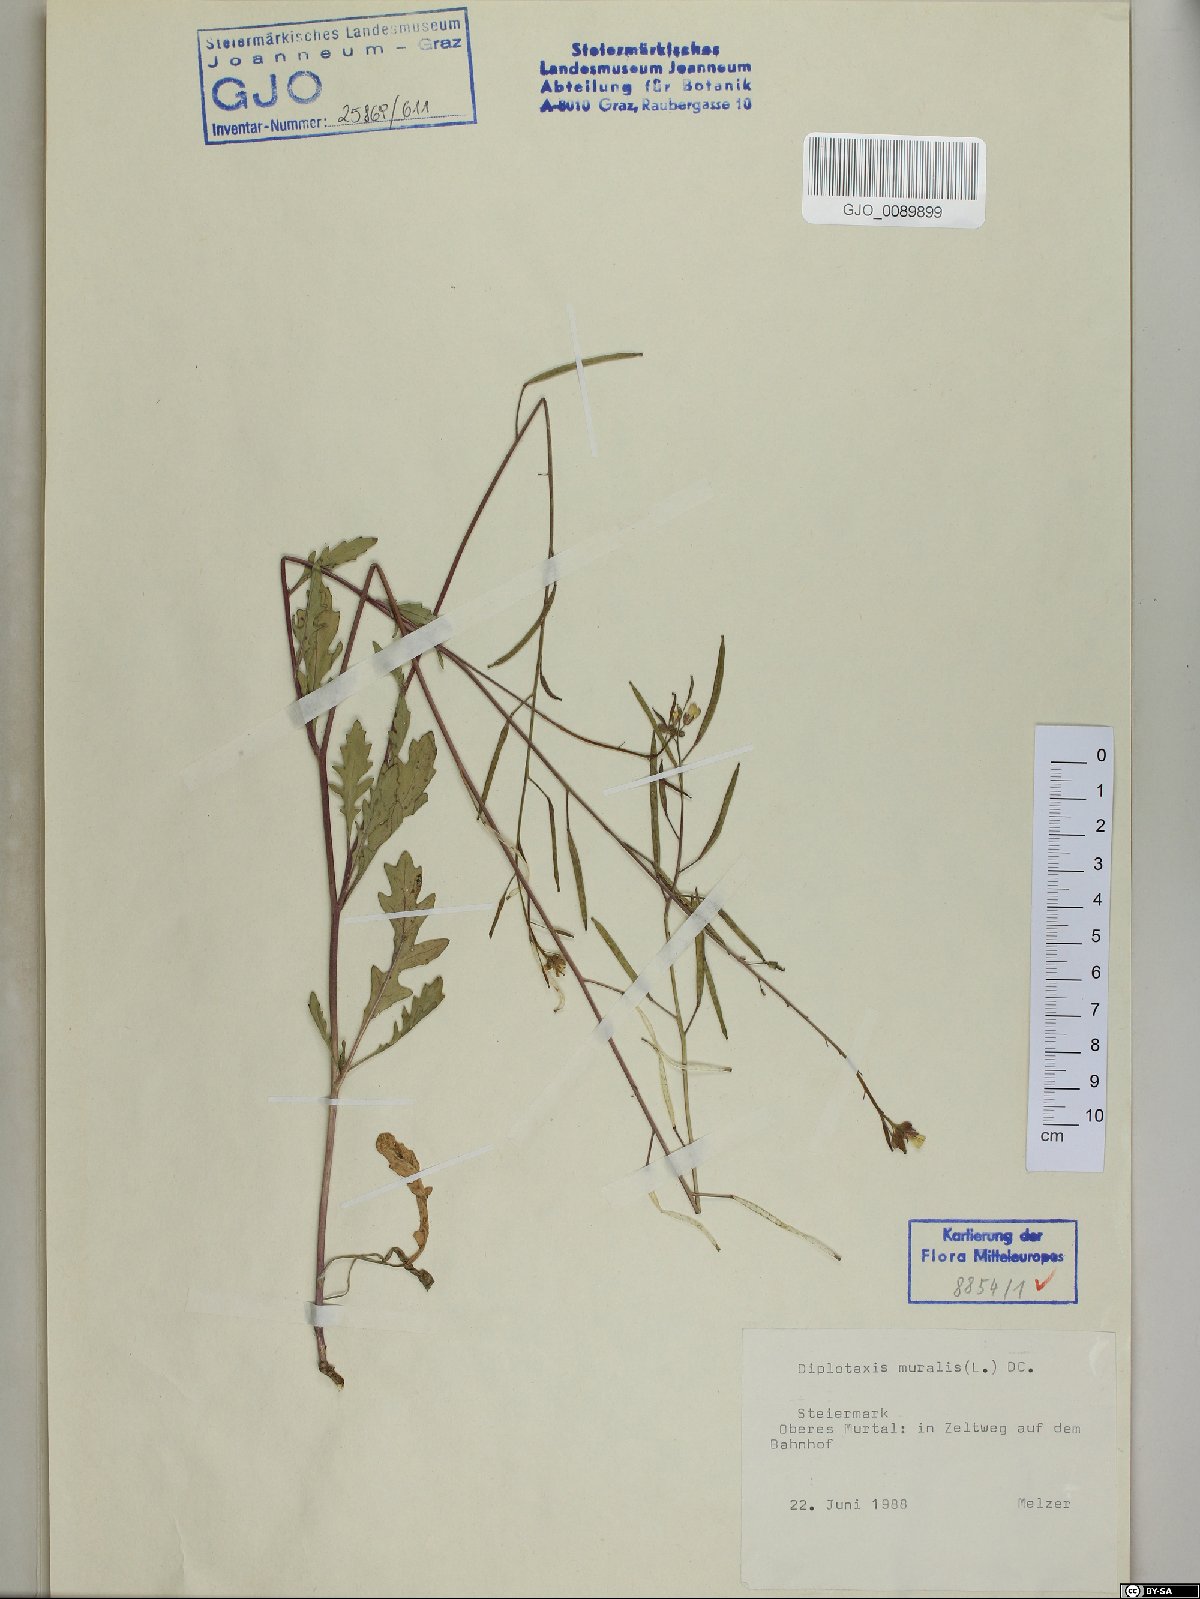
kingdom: Plantae
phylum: Tracheophyta
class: Magnoliopsida
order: Brassicales
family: Brassicaceae
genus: Diplotaxis
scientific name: Diplotaxis muralis
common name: Annual wall-rocket
